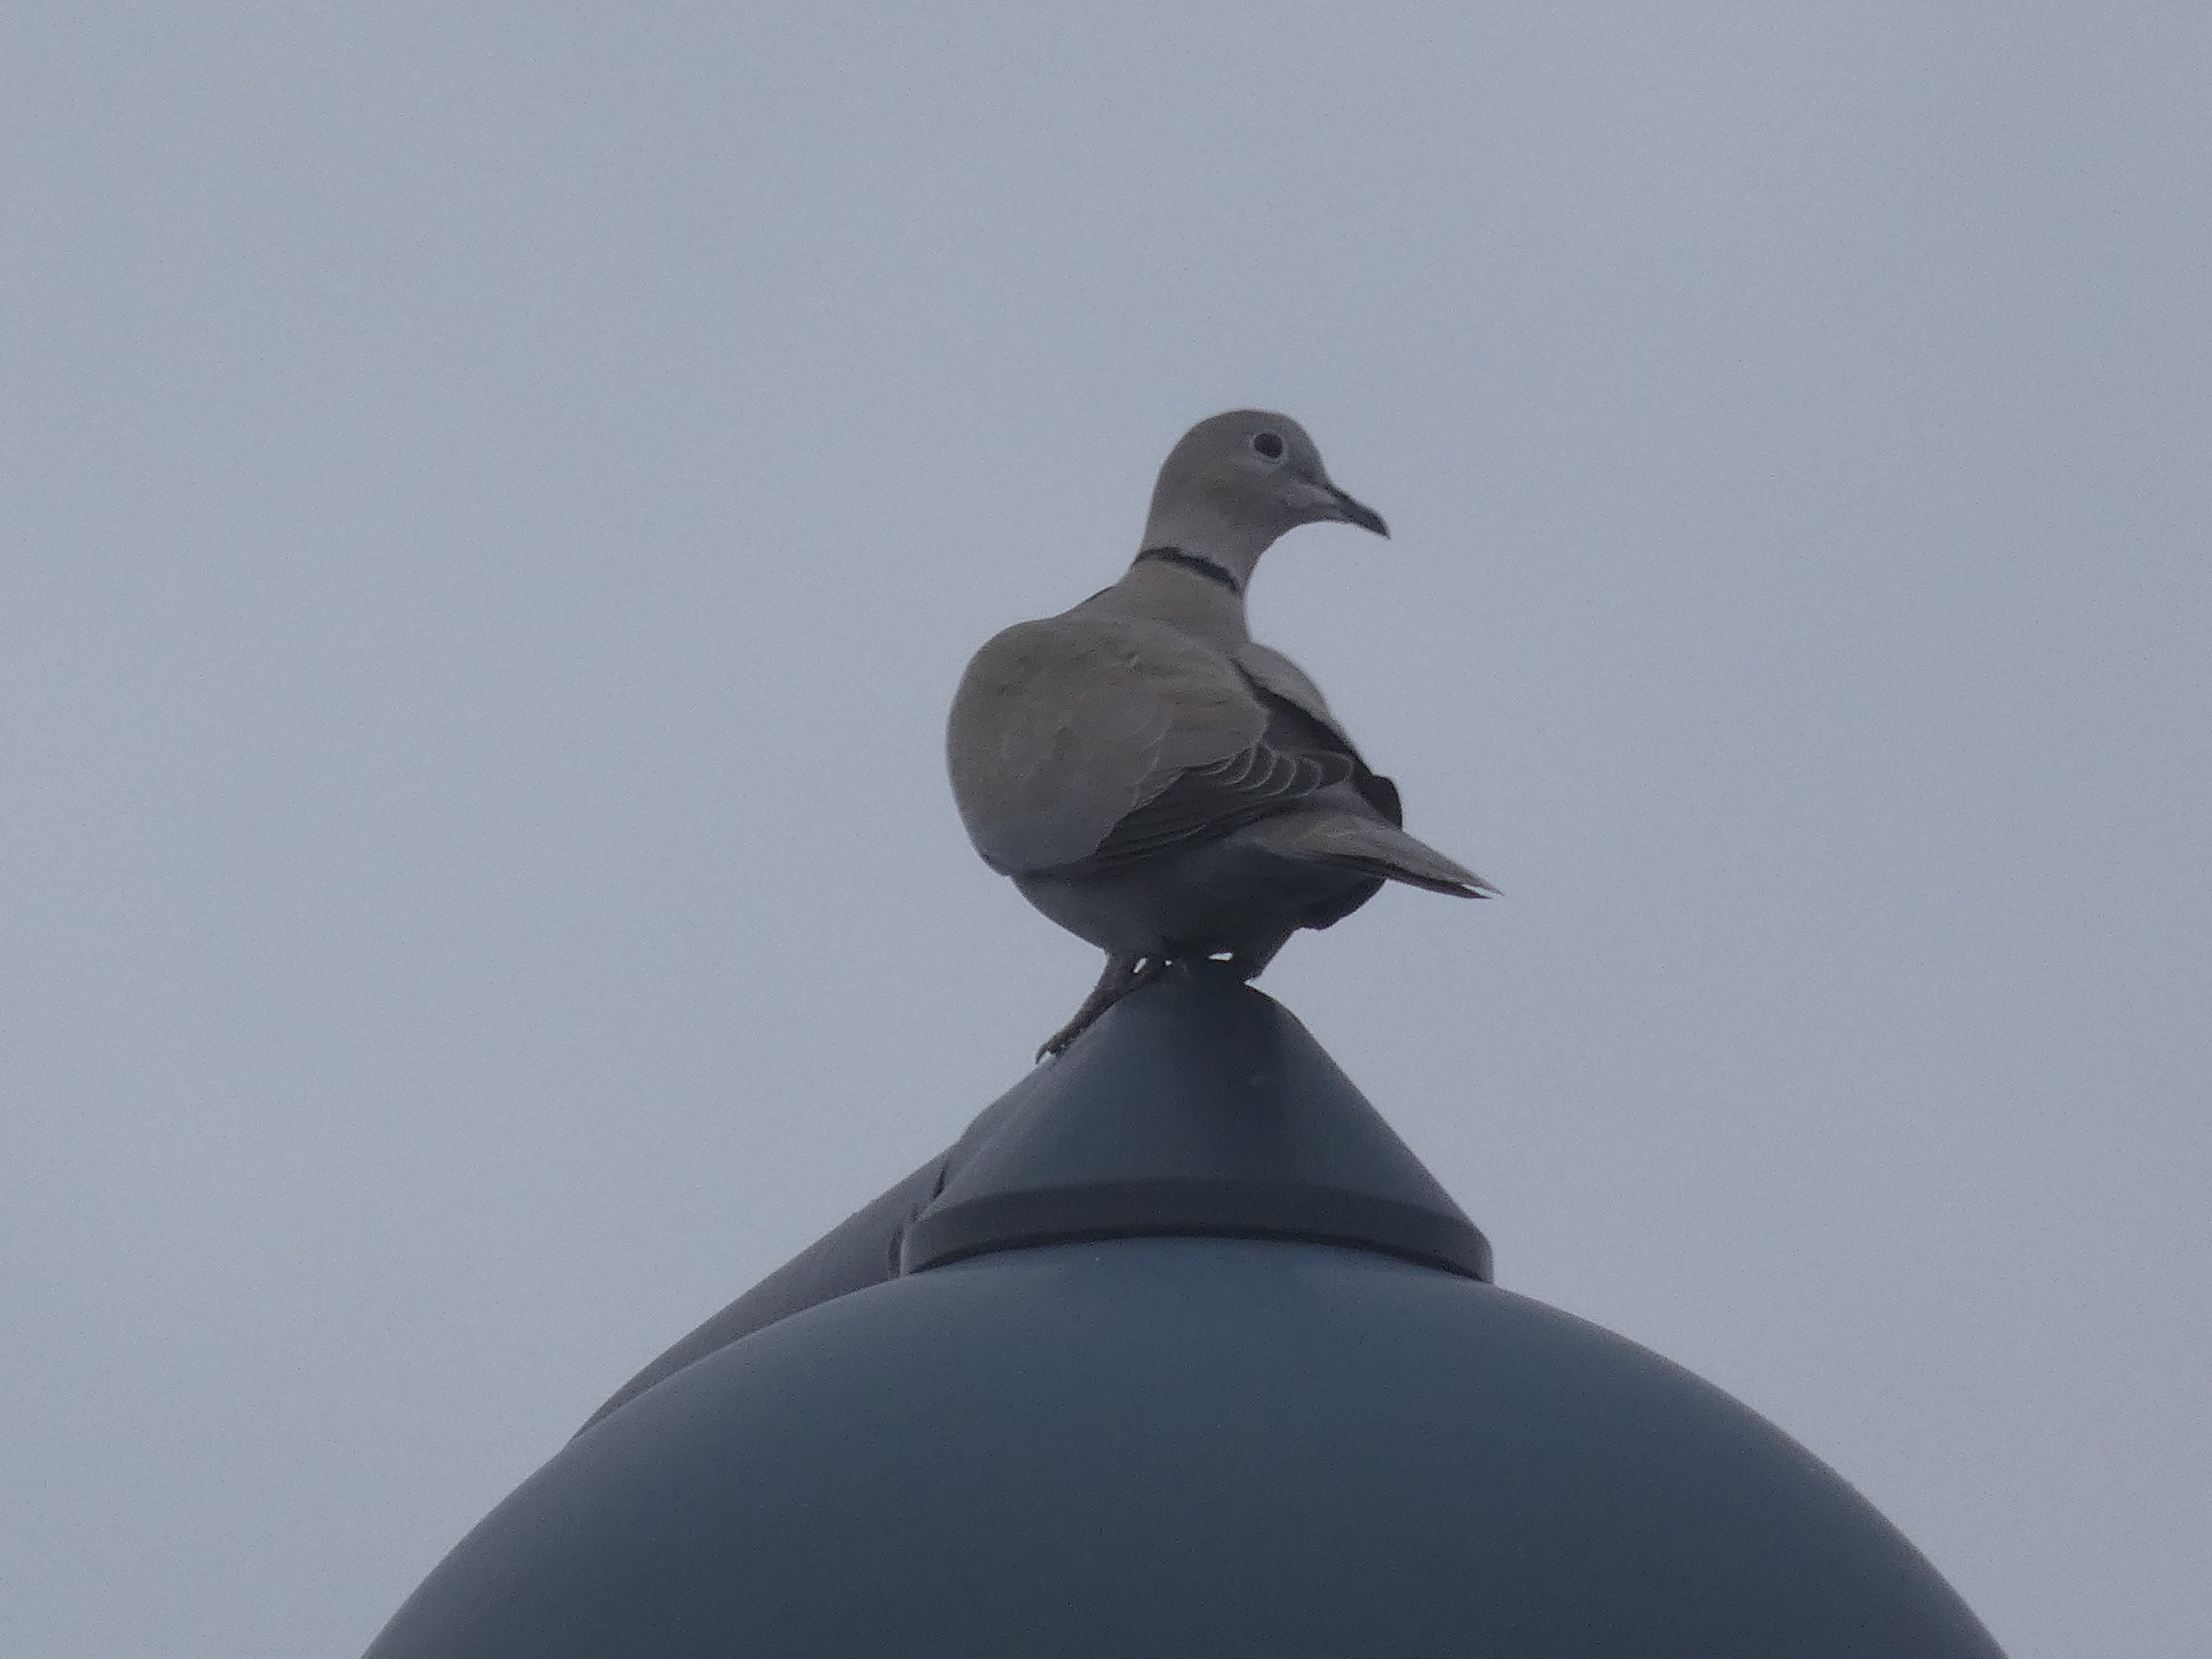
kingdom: Animalia
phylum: Chordata
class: Aves
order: Columbiformes
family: Columbidae
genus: Streptopelia
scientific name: Streptopelia decaocto
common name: Tyrkerdue
